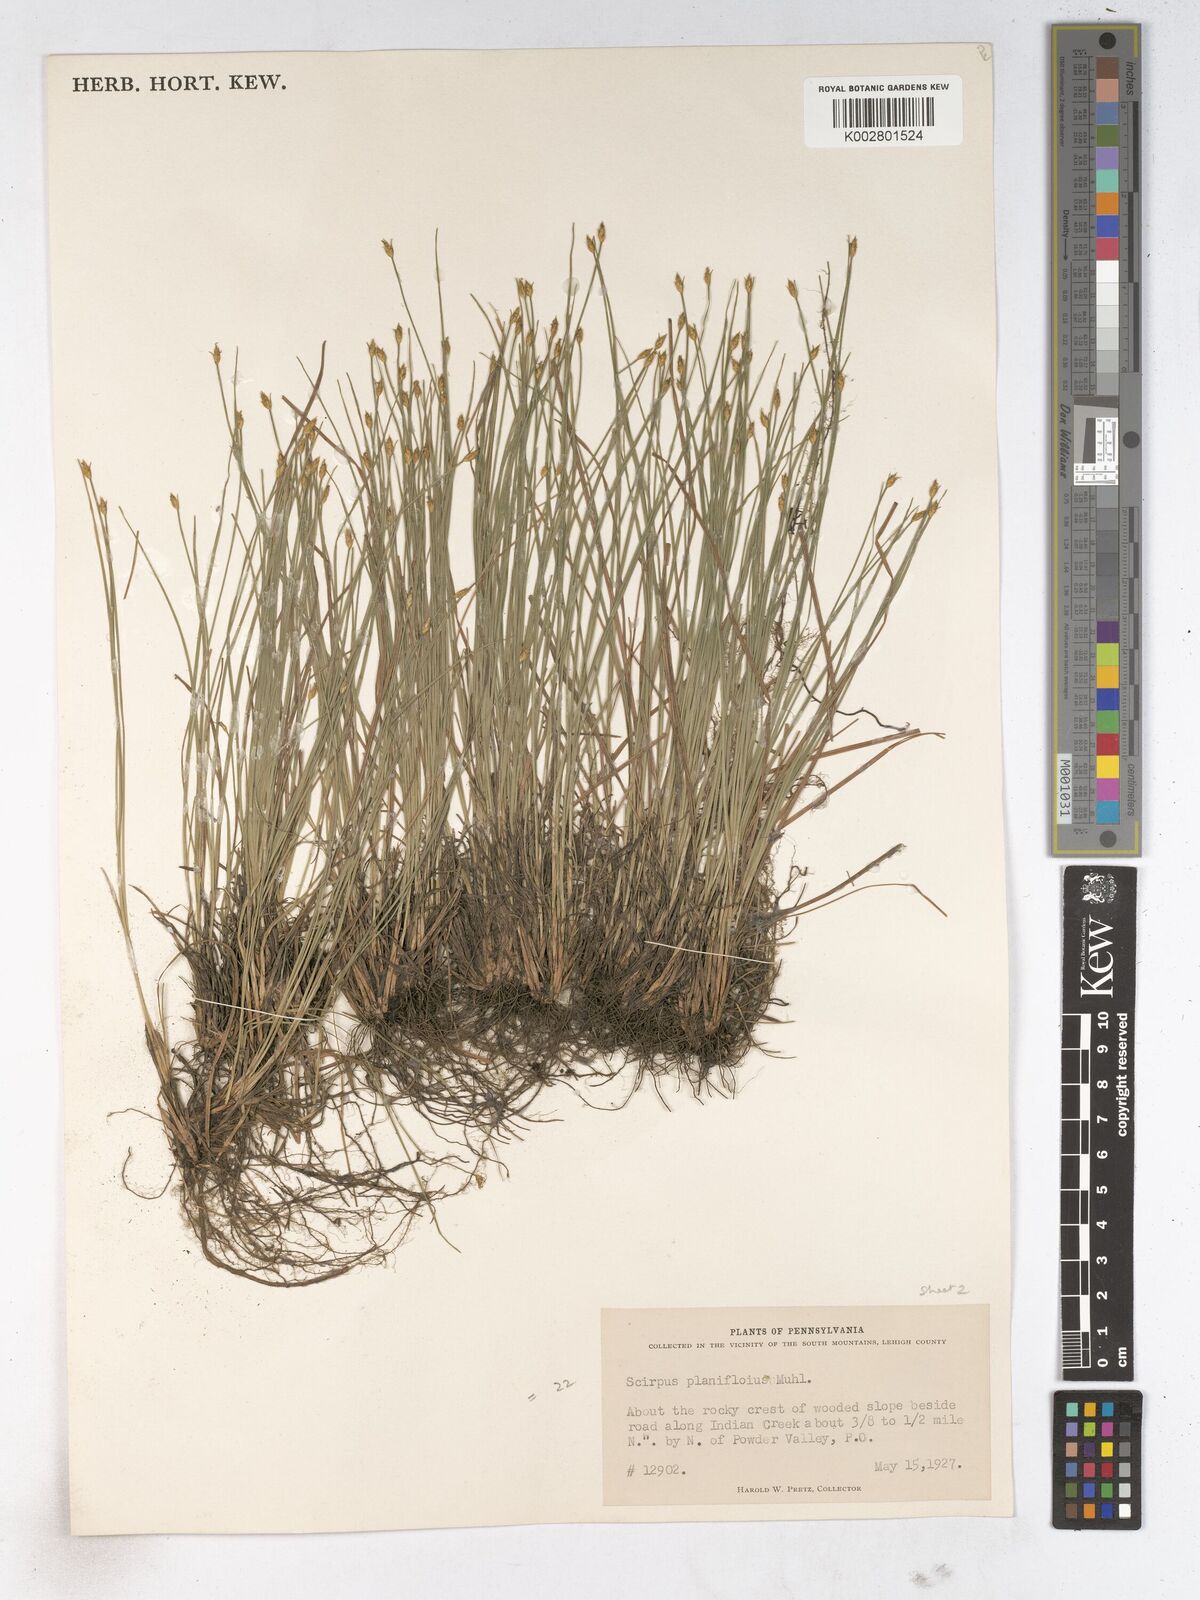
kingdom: Plantae
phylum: Tracheophyta
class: Liliopsida
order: Poales
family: Cyperaceae
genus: Trichophorum
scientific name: Trichophorum planifolium
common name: Bashful bulrush
